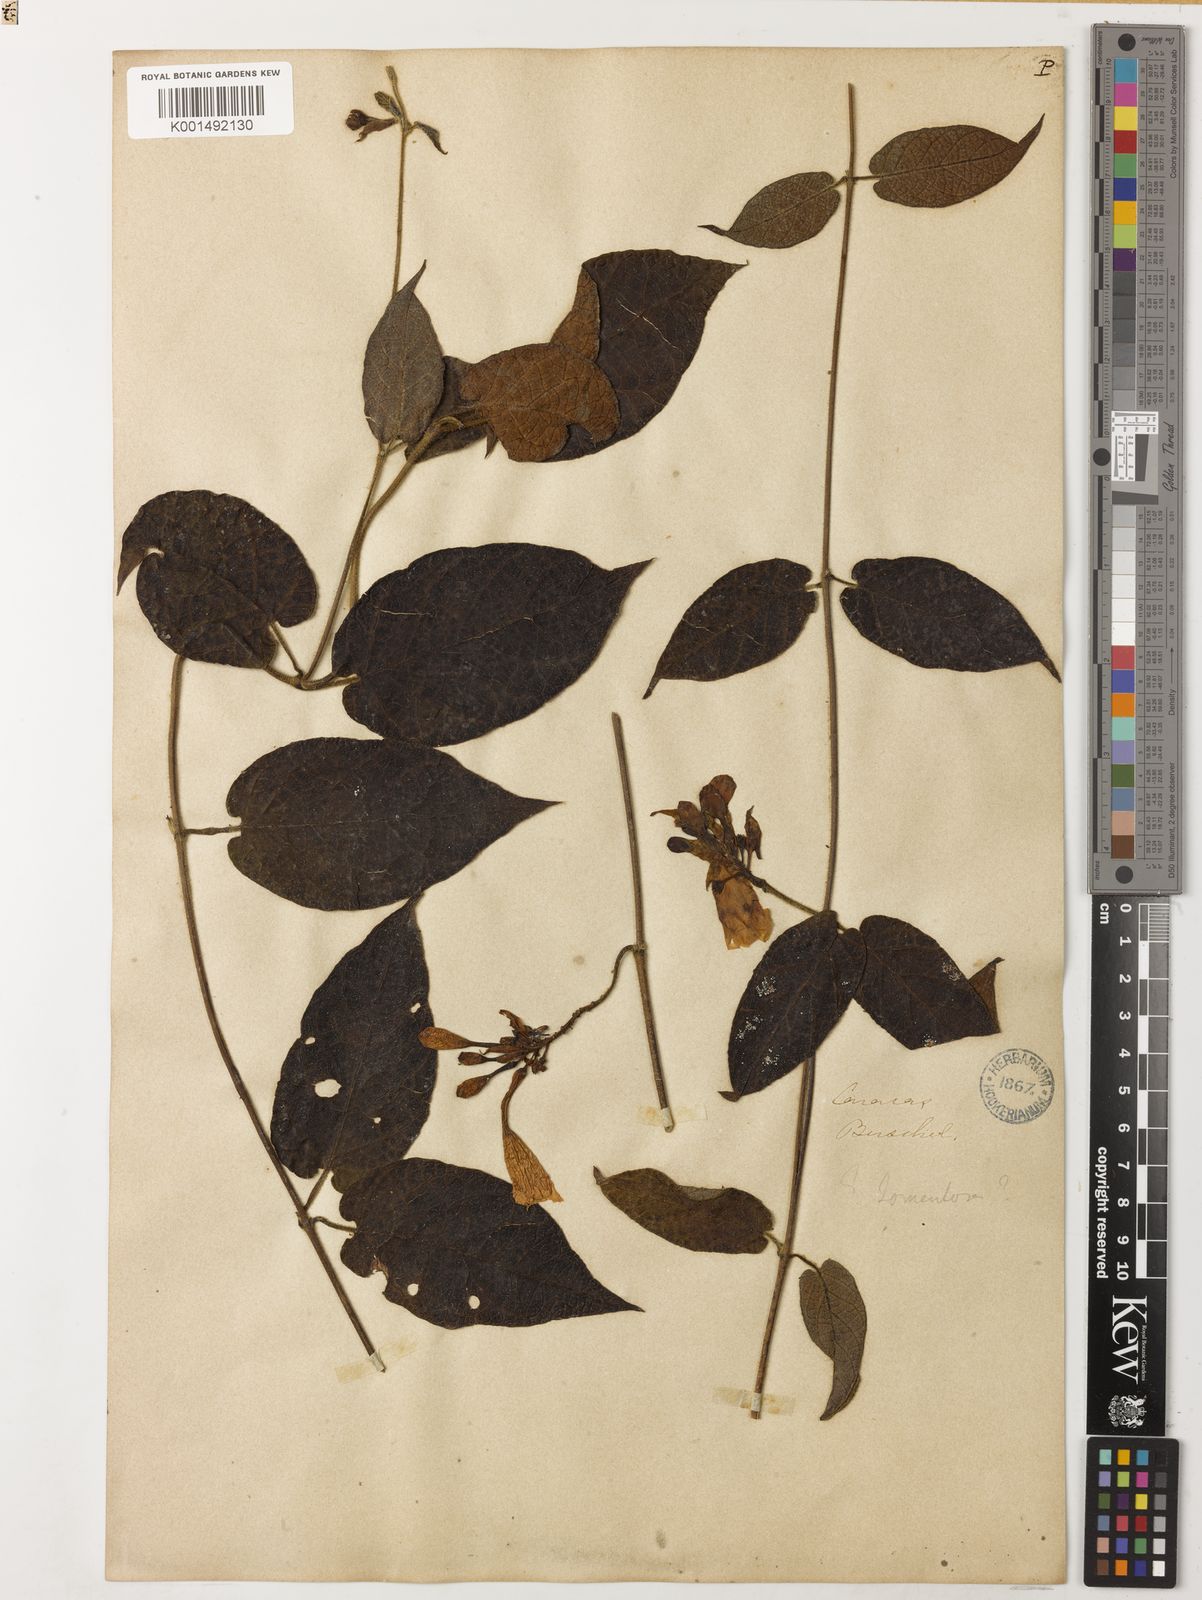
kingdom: Plantae
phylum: Tracheophyta
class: Magnoliopsida
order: Gentianales
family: Apocynaceae
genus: Mandevilla
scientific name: Mandevilla moritziana
